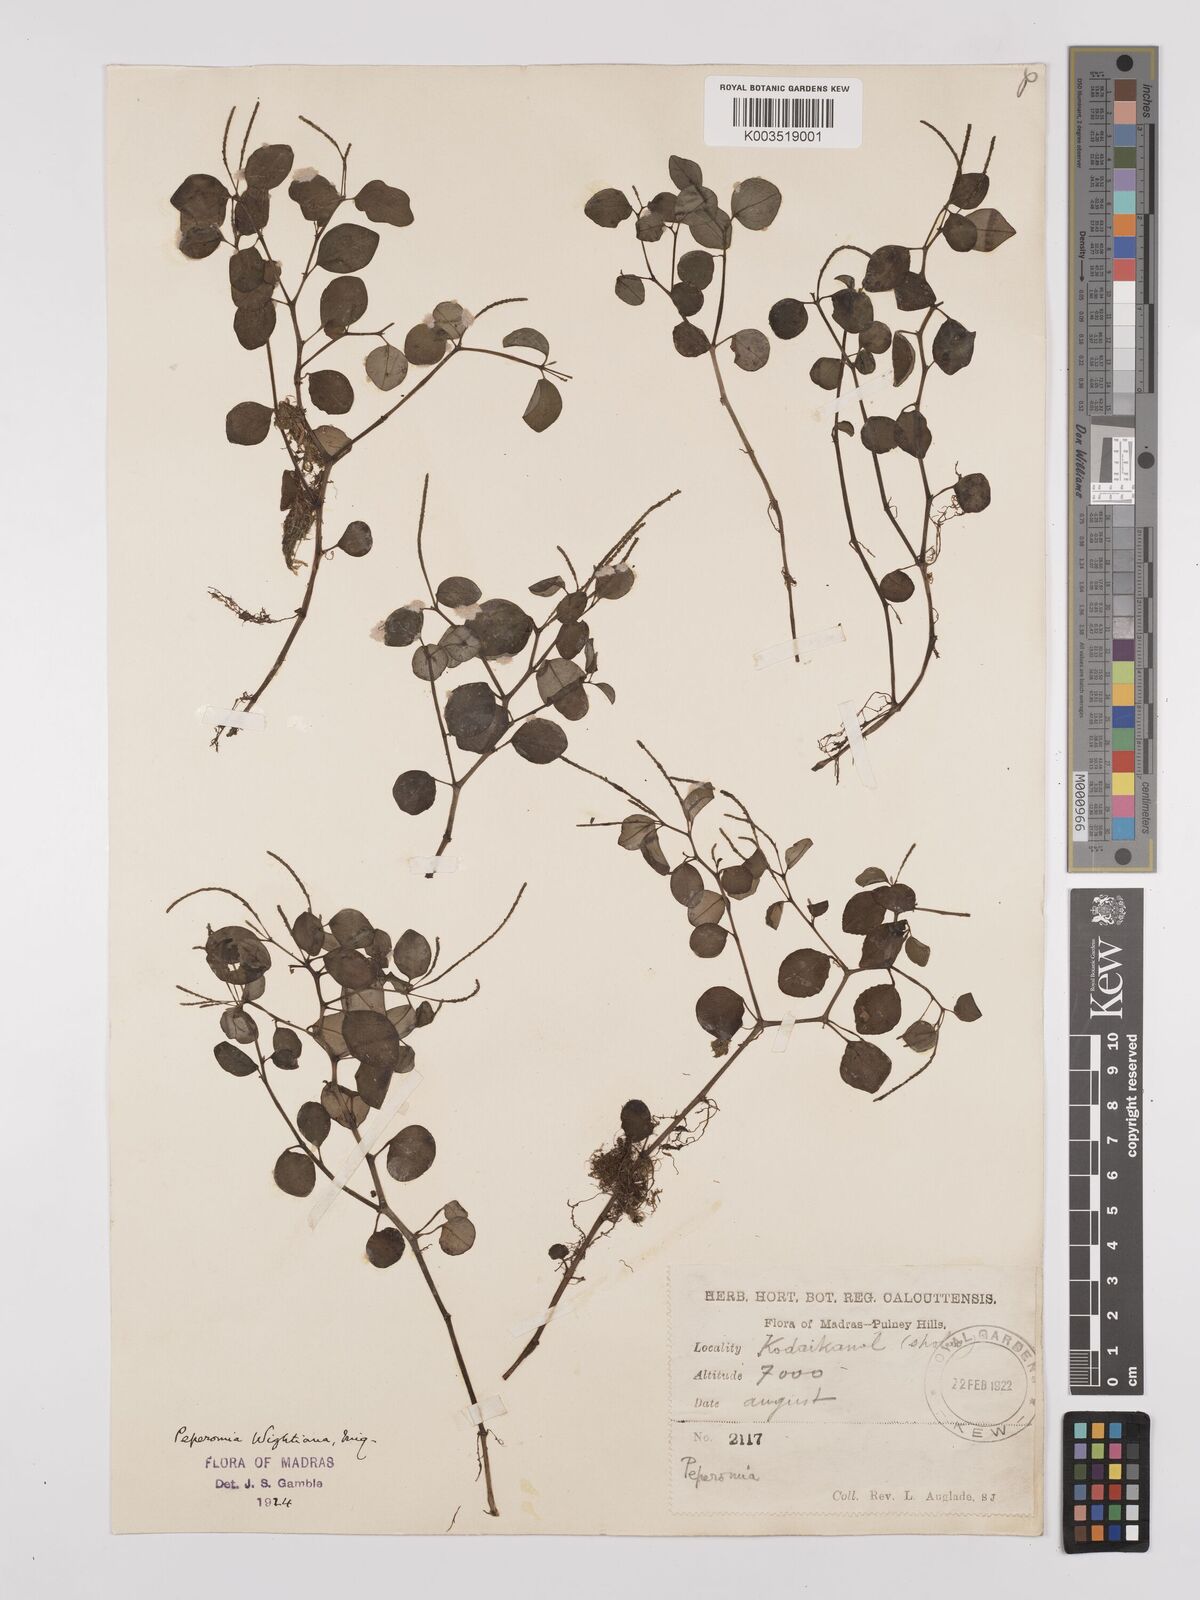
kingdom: Plantae
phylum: Tracheophyta
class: Magnoliopsida
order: Piperales
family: Piperaceae
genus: Peperomia
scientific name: Peperomia wightiana
